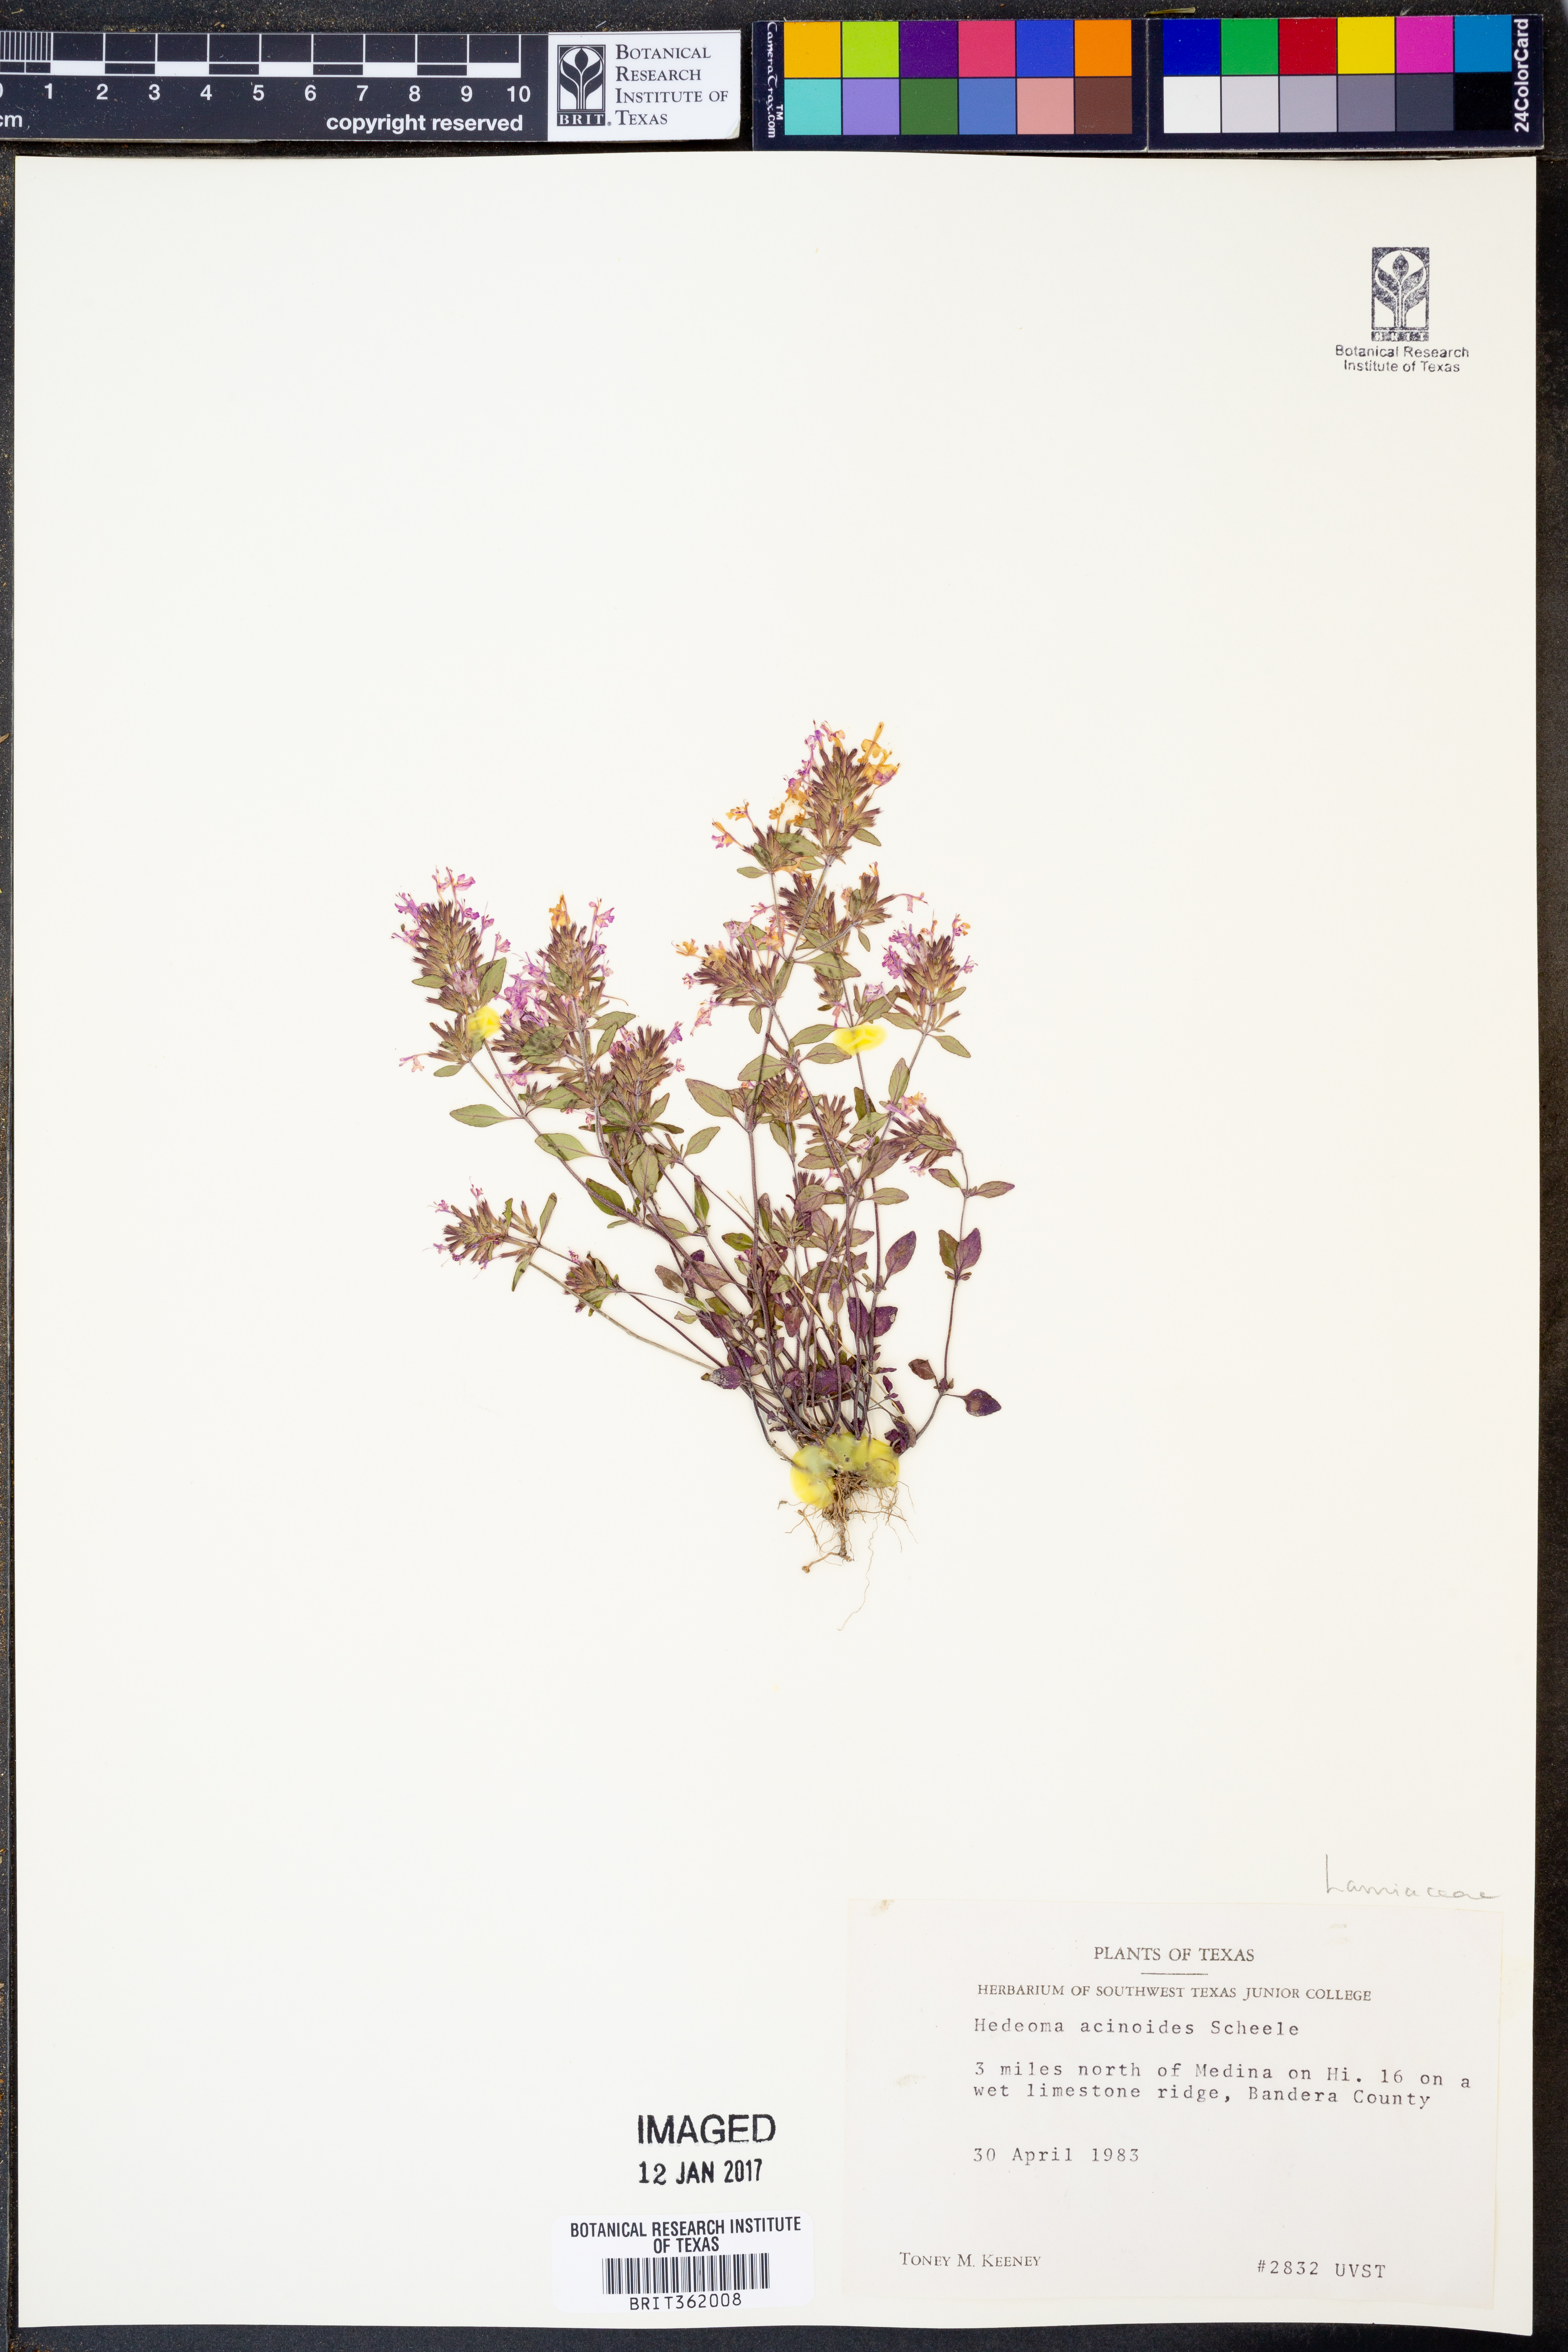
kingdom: Plantae
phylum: Tracheophyta
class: Magnoliopsida
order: Lamiales
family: Lamiaceae
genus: Hedeoma
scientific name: Hedeoma acinoides
